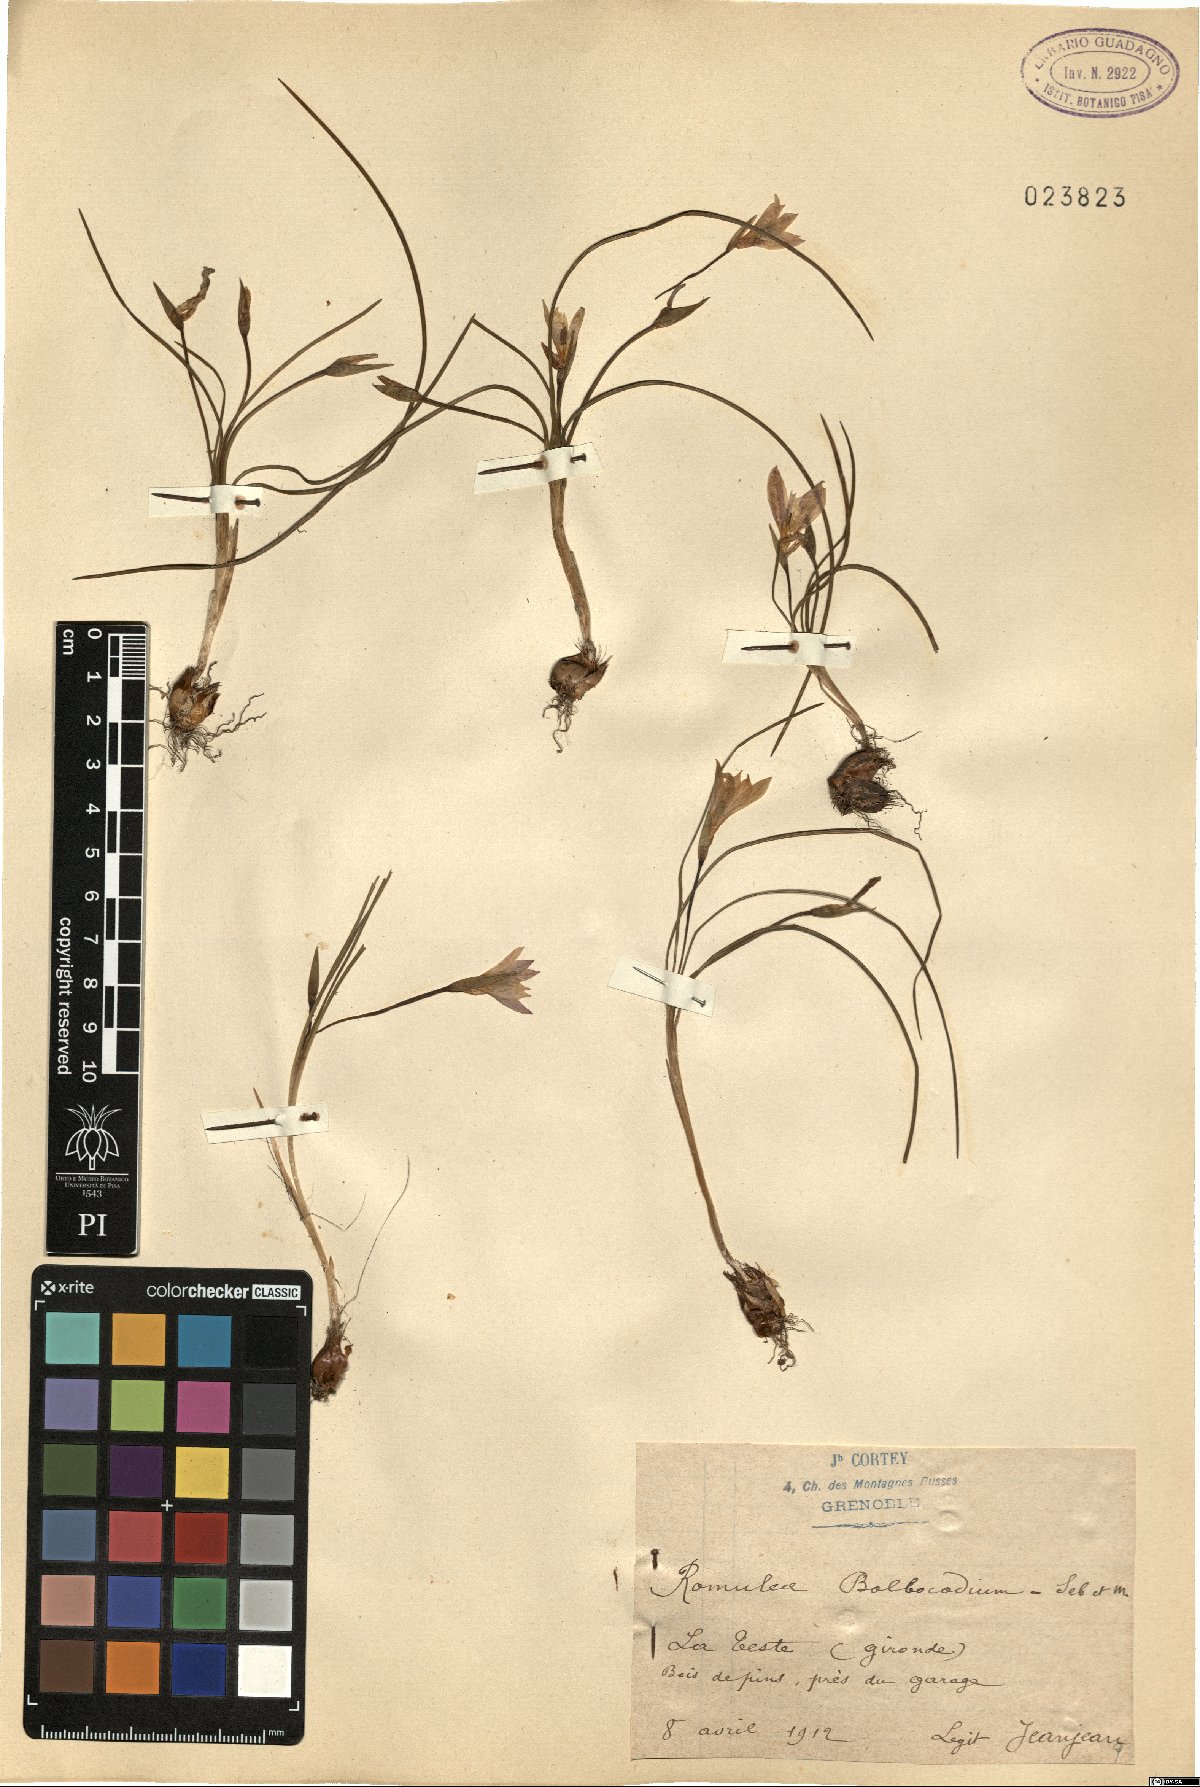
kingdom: Plantae
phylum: Tracheophyta
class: Liliopsida
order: Asparagales
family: Iridaceae
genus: Romulea
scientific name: Romulea bulbocodium
